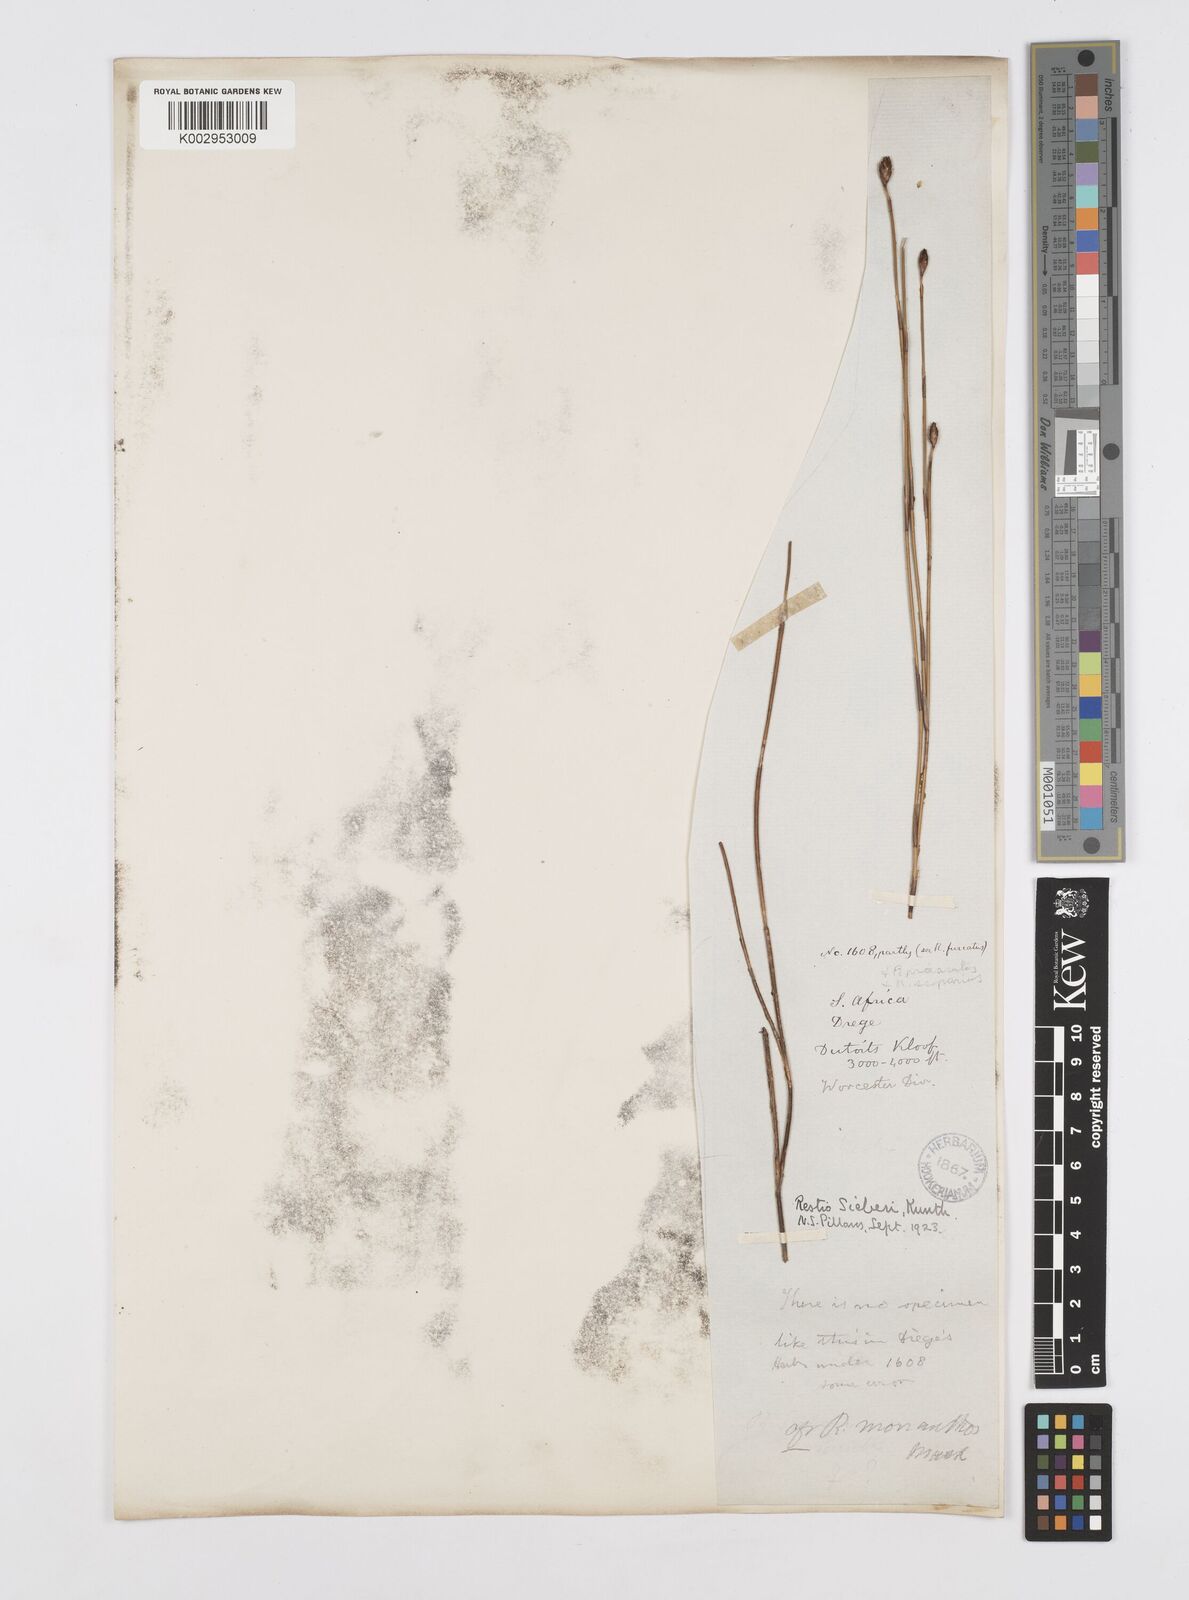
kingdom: Plantae
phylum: Tracheophyta
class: Liliopsida
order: Poales
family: Restionaceae
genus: Restio
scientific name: Restio sieberi
